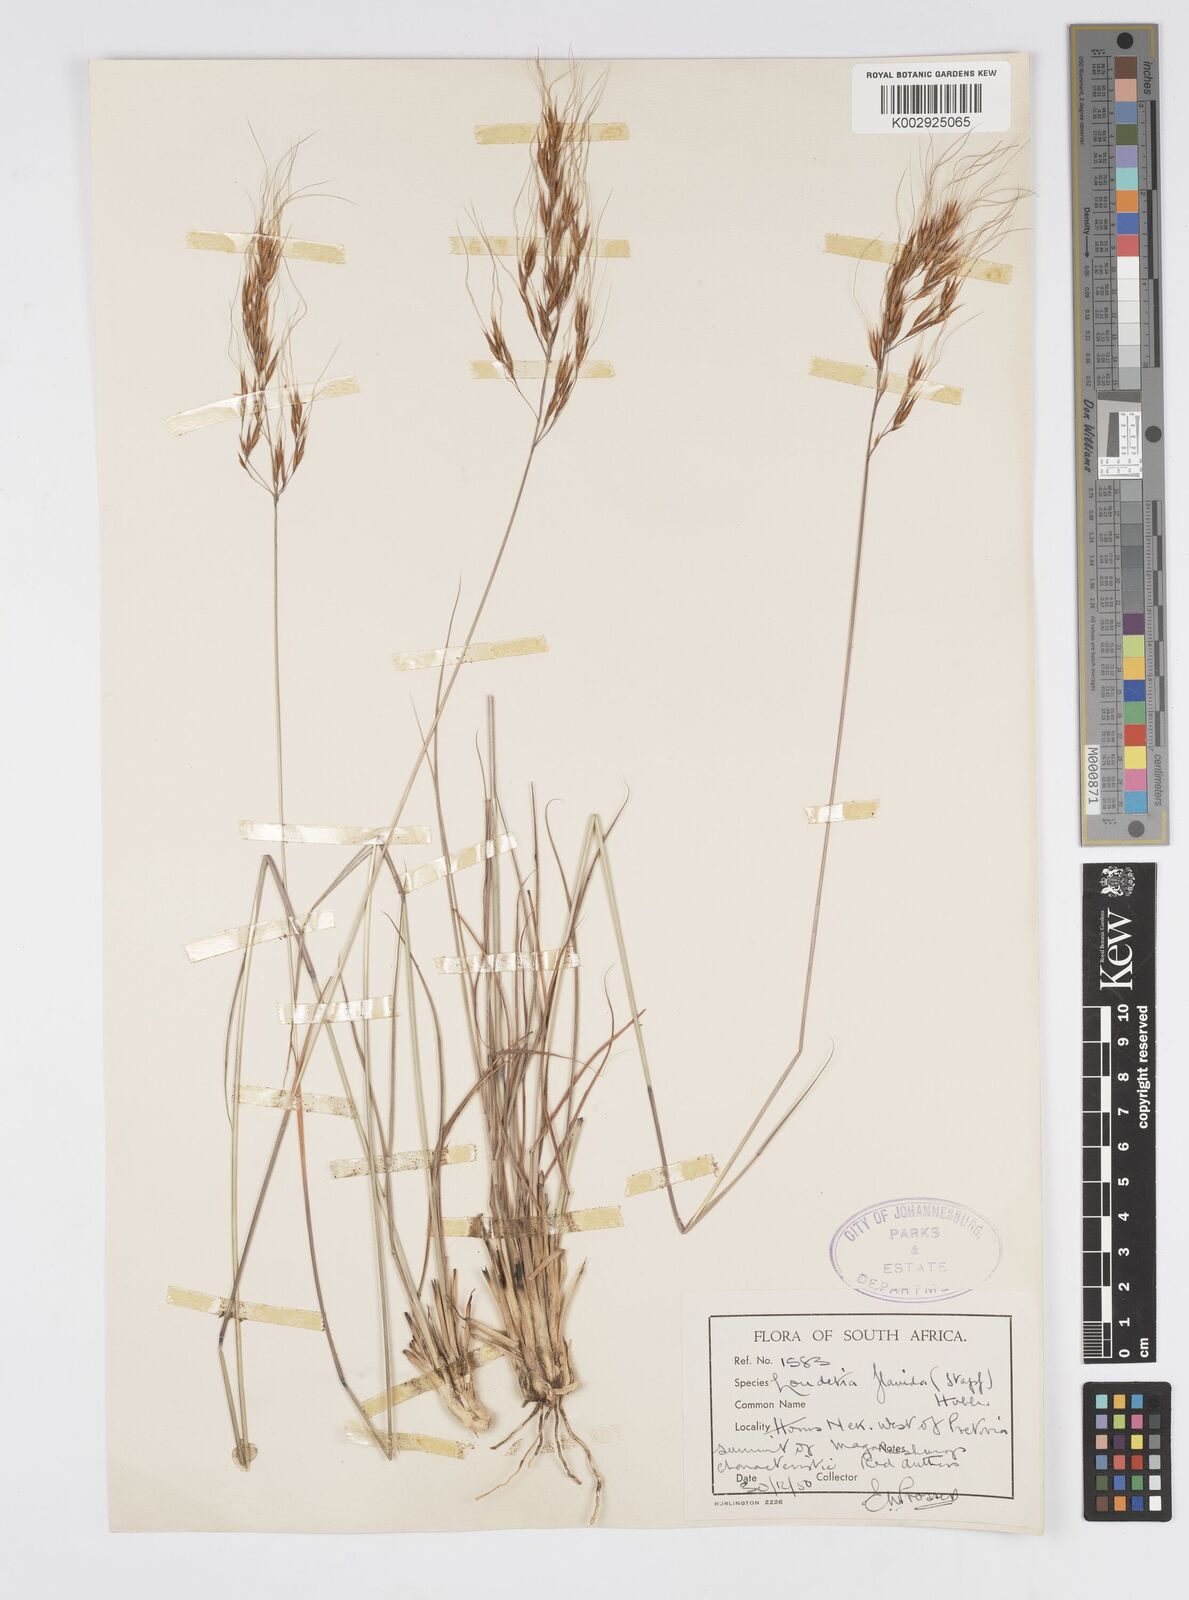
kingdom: Plantae
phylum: Tracheophyta
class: Liliopsida
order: Poales
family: Poaceae
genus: Loudetia
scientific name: Loudetia flavida
